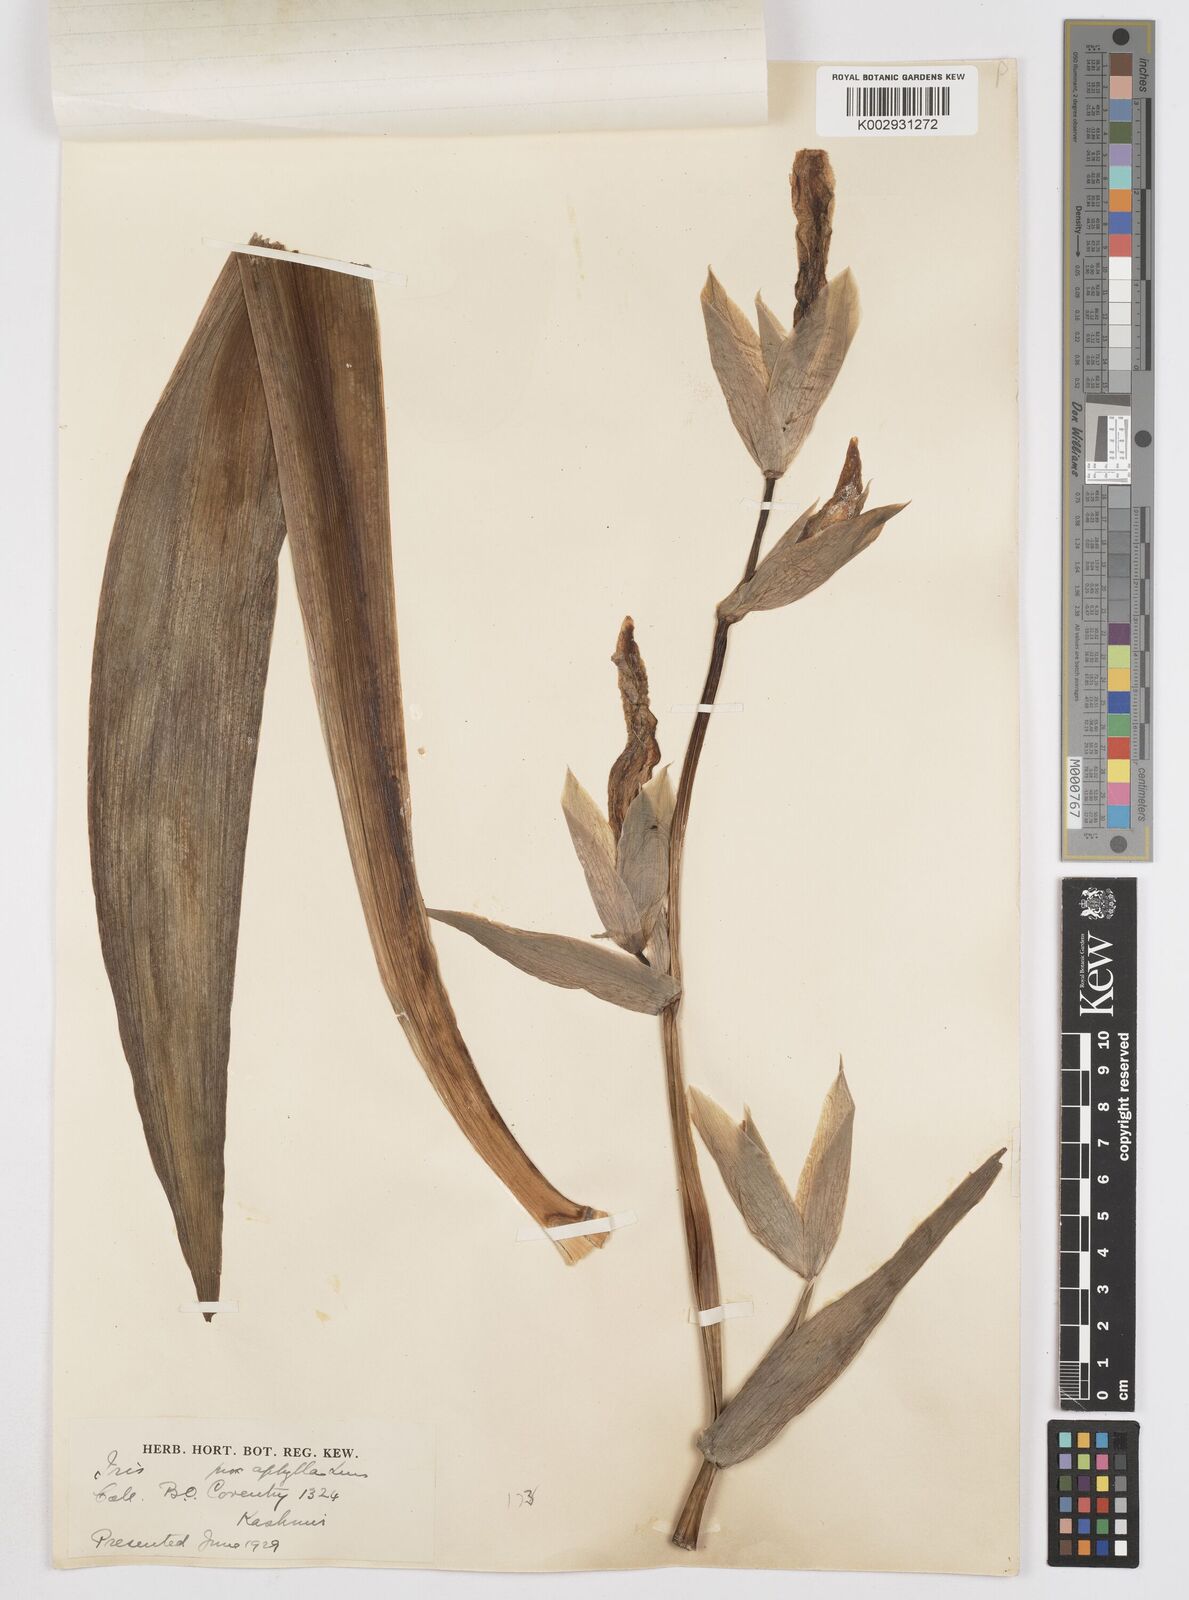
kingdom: Plantae
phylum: Tracheophyta
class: Liliopsida
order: Asparagales
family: Iridaceae
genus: Iris
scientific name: Iris kashmiriana
